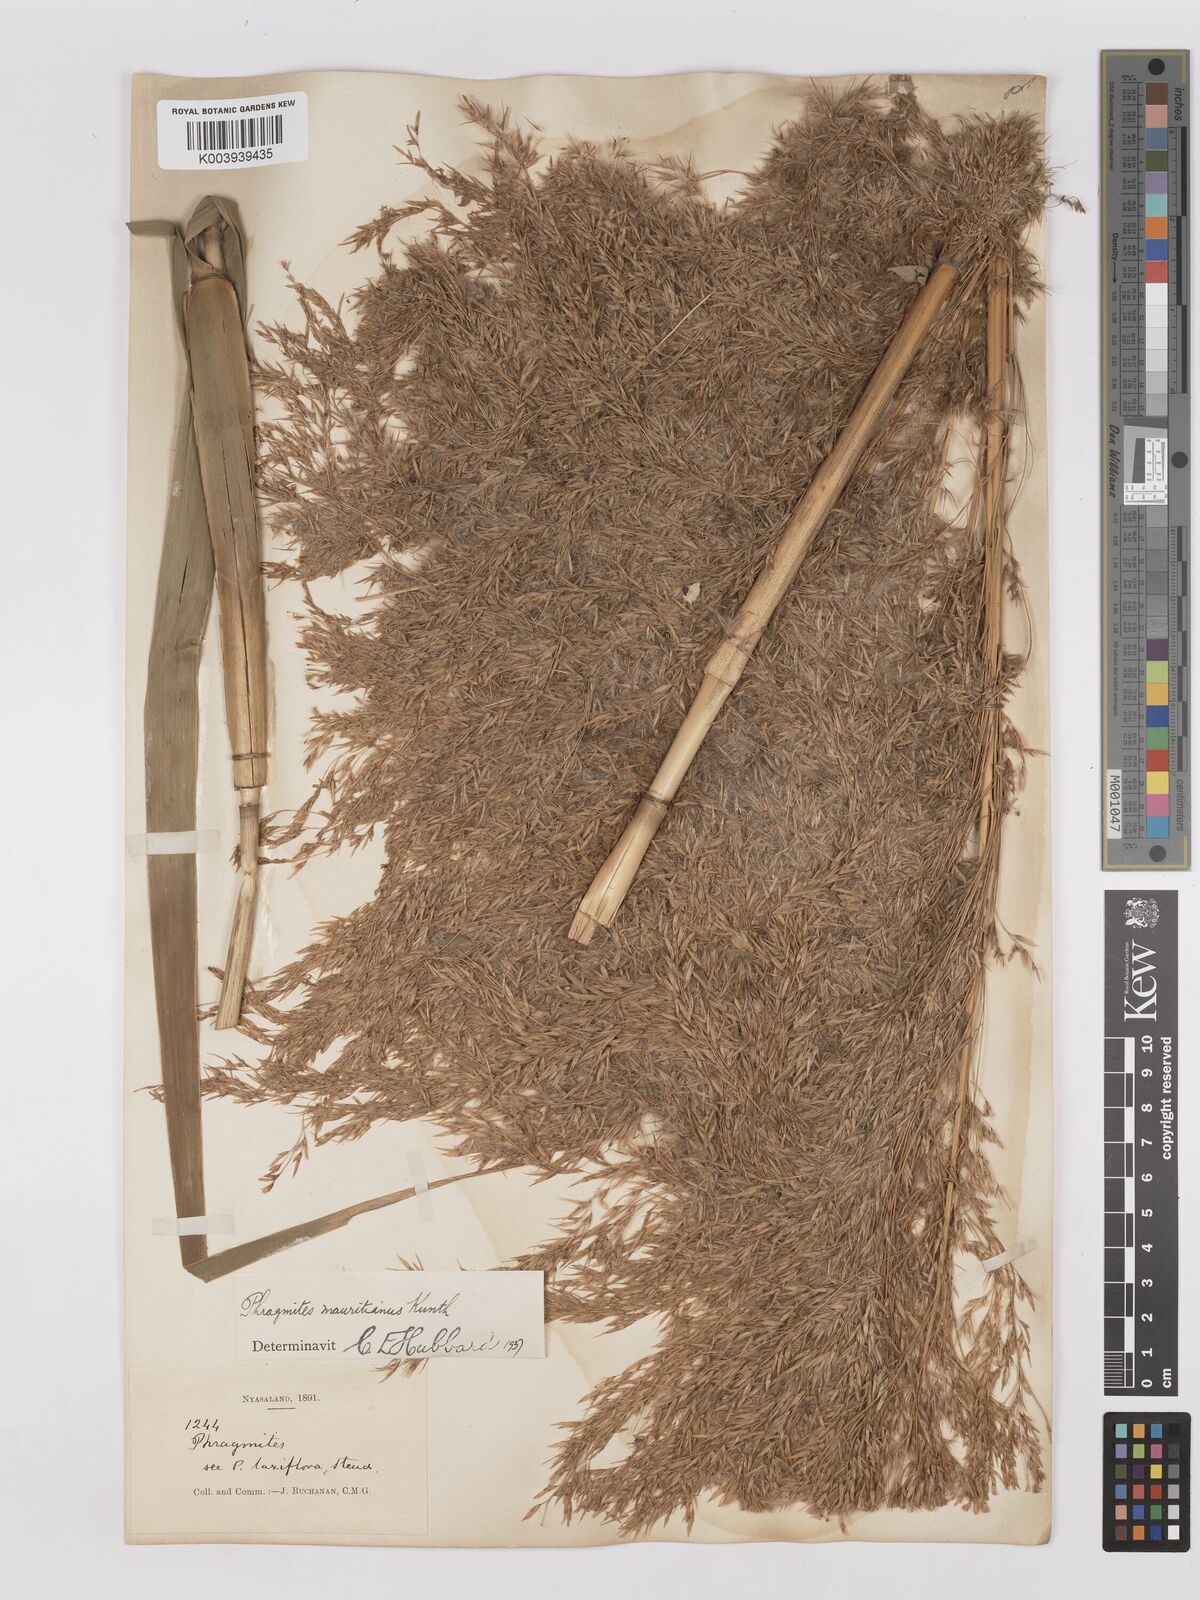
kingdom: Plantae
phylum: Tracheophyta
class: Liliopsida
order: Poales
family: Poaceae
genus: Phragmites
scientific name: Phragmites mauritianus
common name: Reed grass
